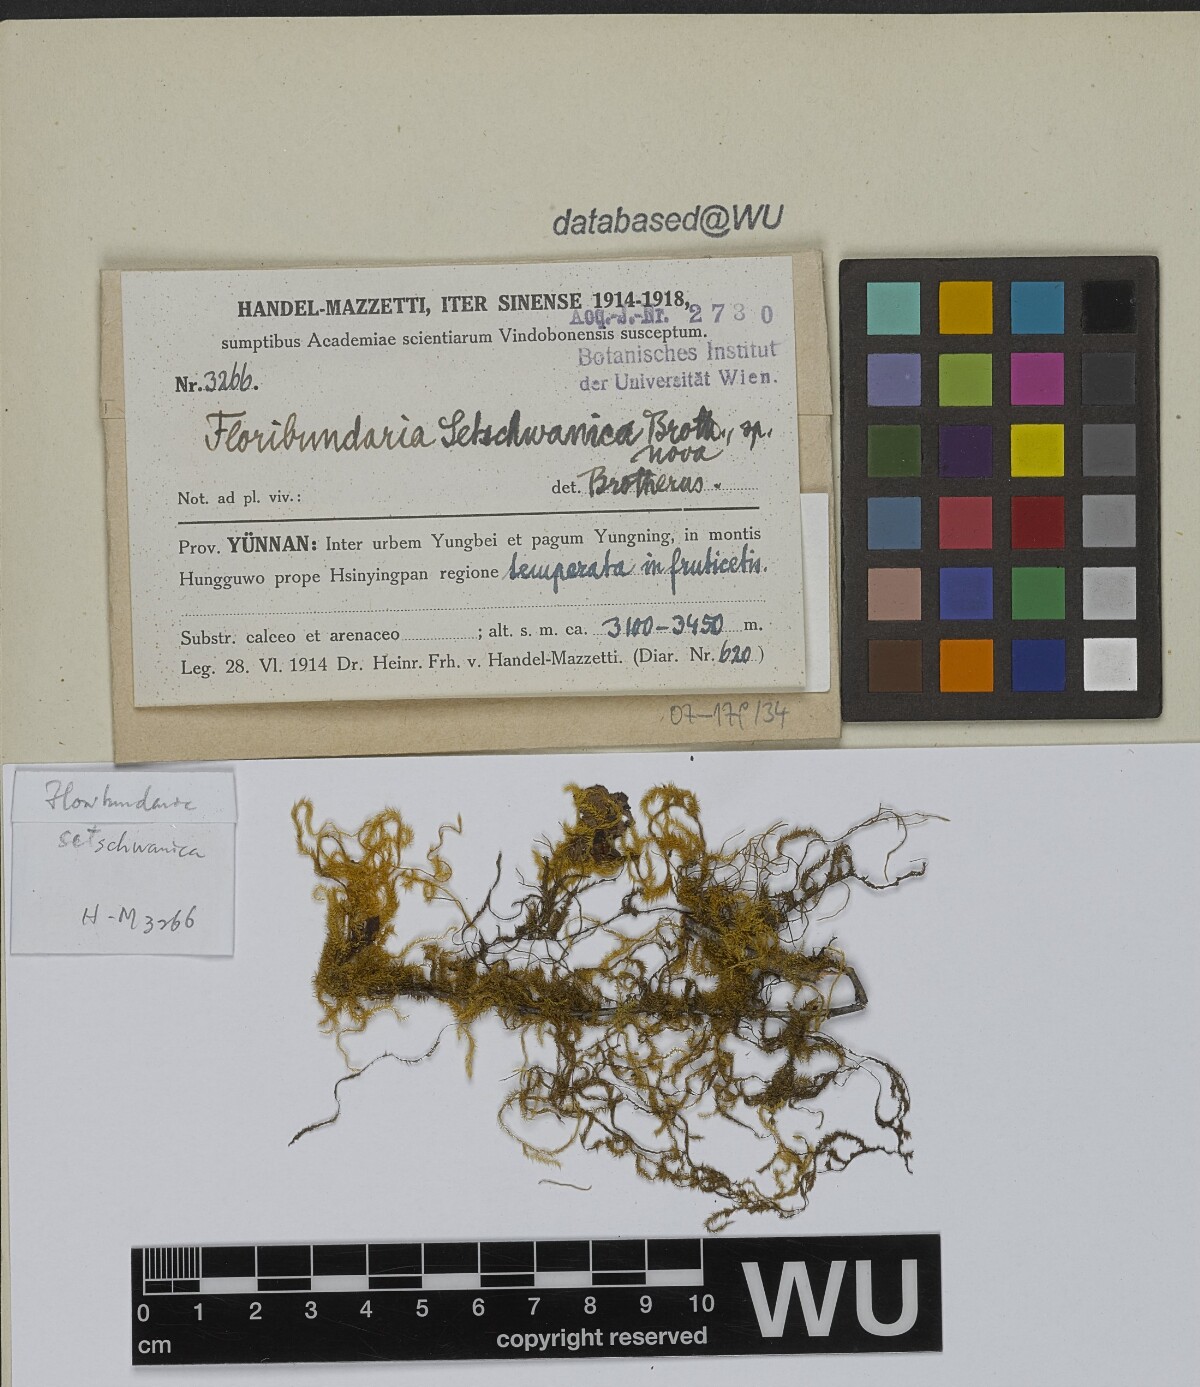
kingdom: Plantae
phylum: Bryophyta
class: Bryopsida
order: Hypnales
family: Meteoriaceae
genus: Floribundaria
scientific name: Floribundaria setschwanica
